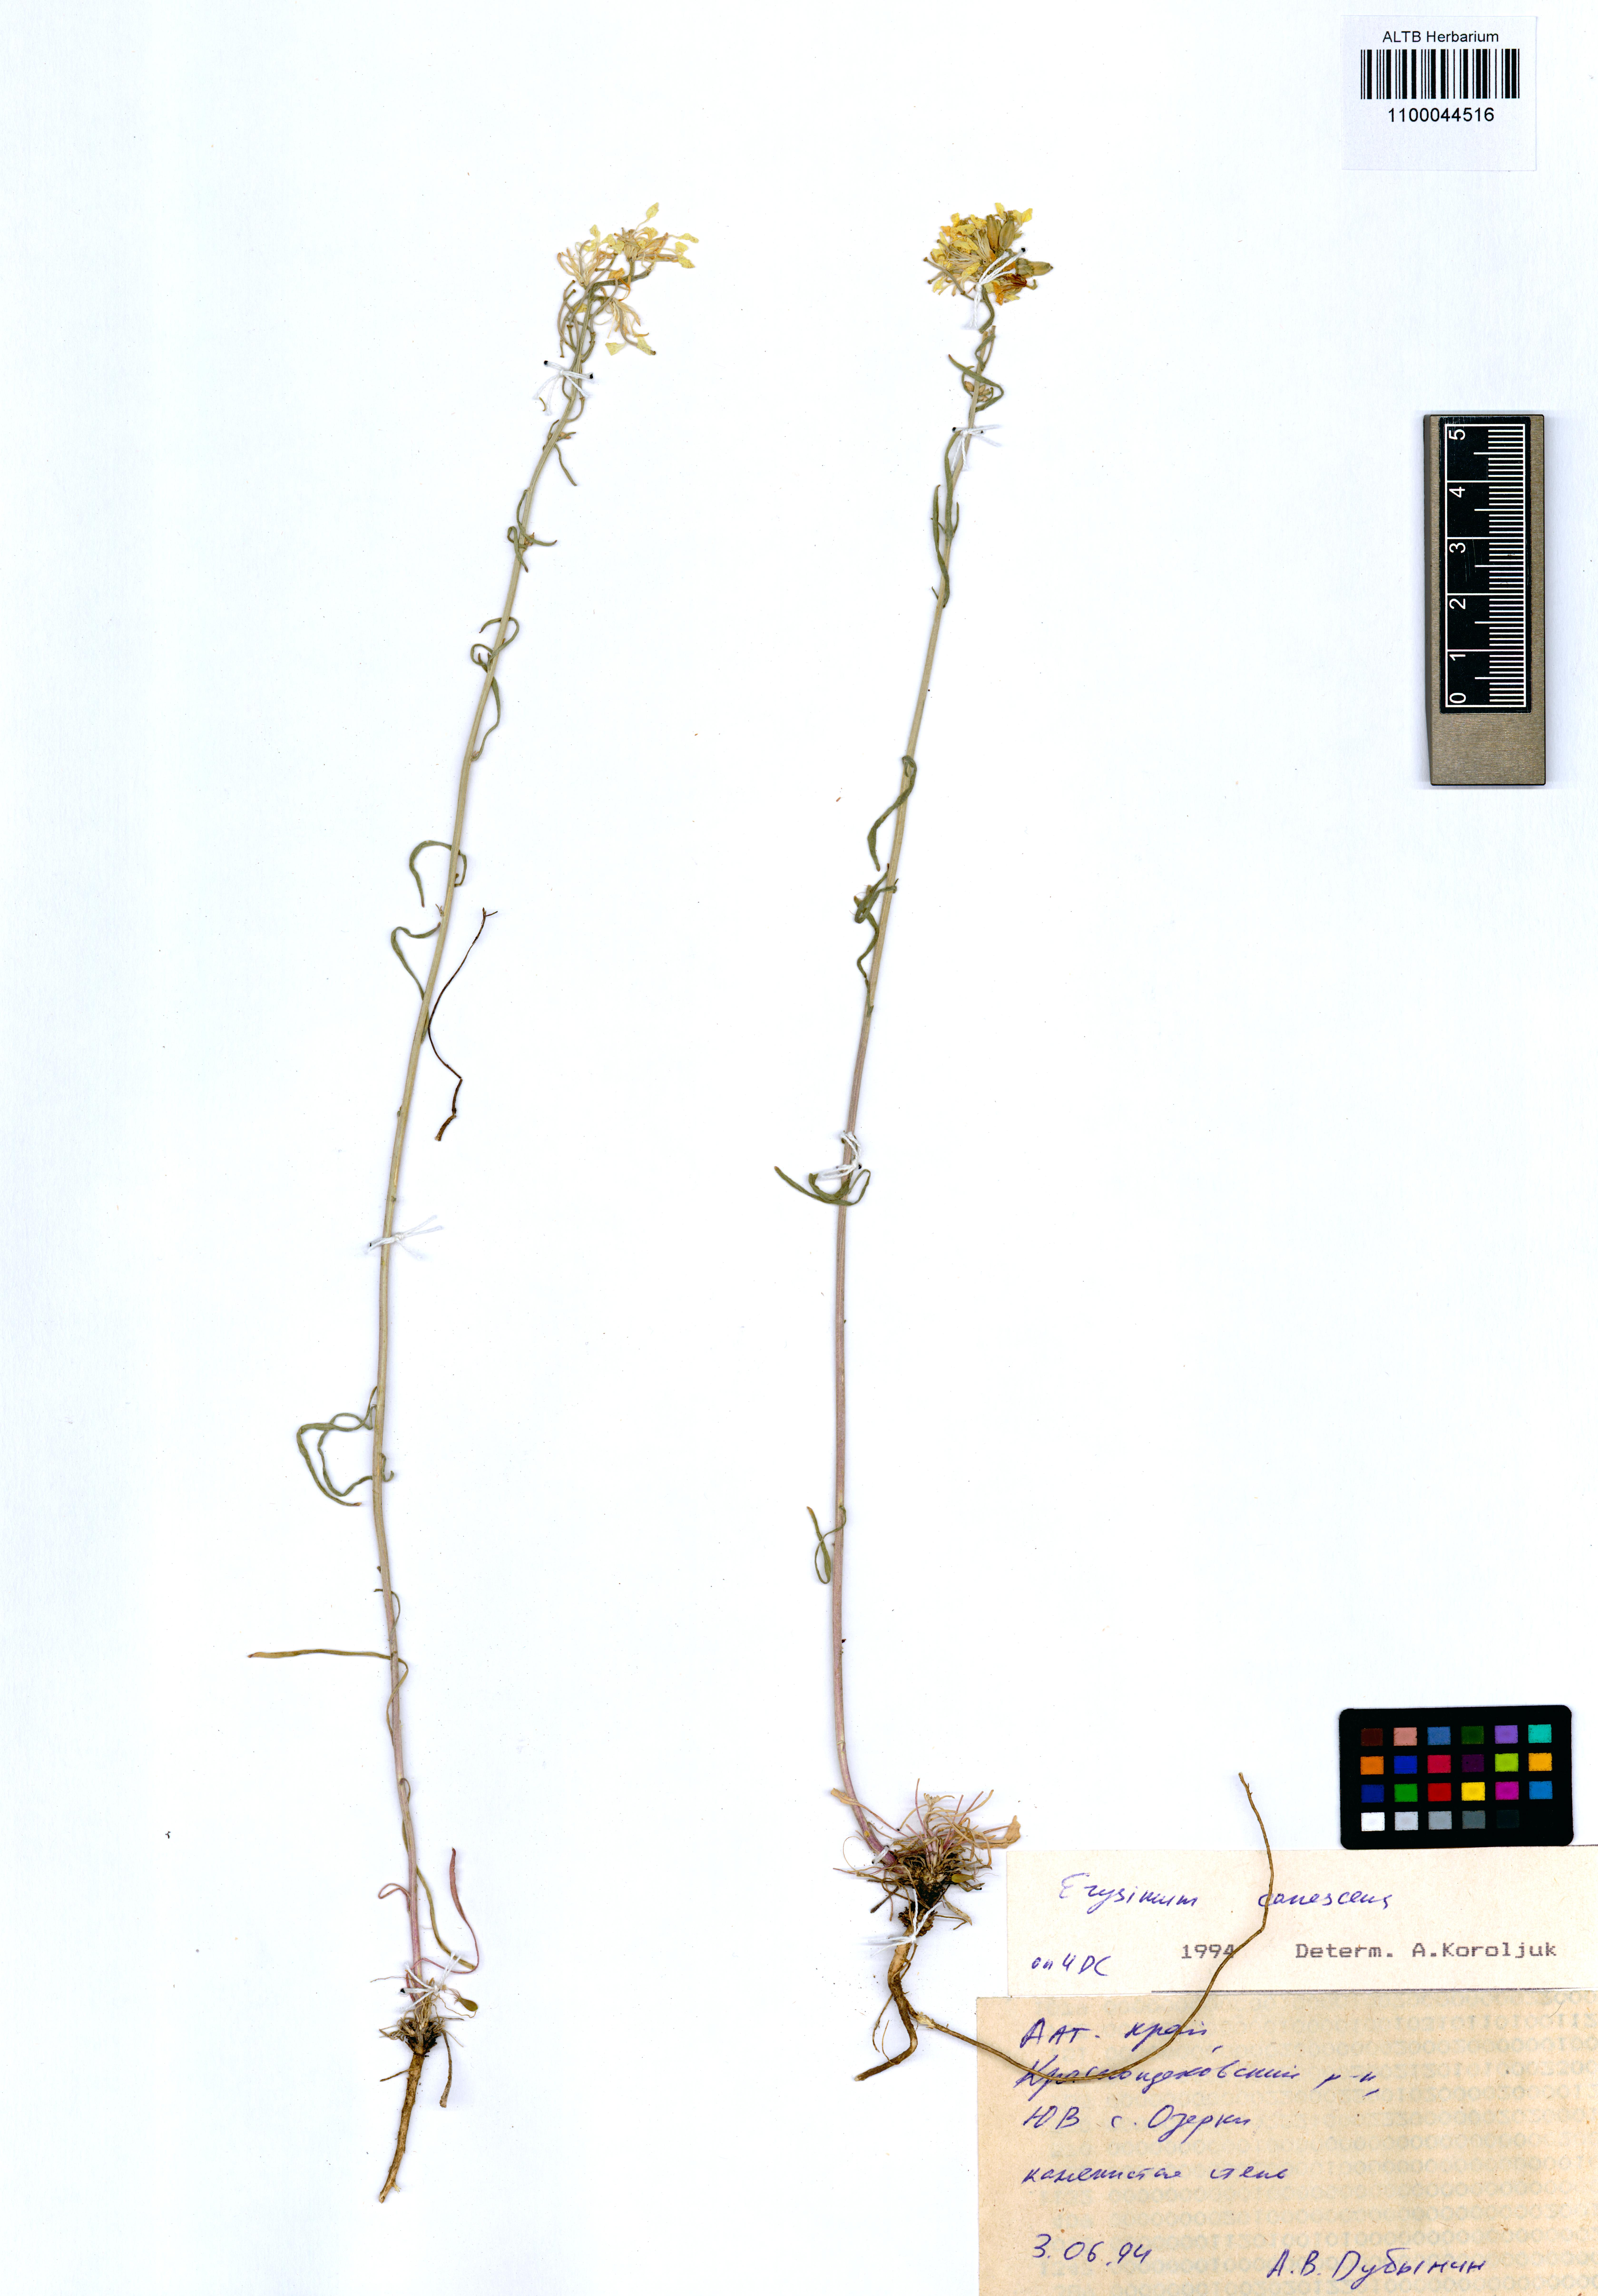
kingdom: Plantae
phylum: Tracheophyta
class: Magnoliopsida
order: Brassicales
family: Brassicaceae
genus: Erysimum
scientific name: Erysimum canescens
